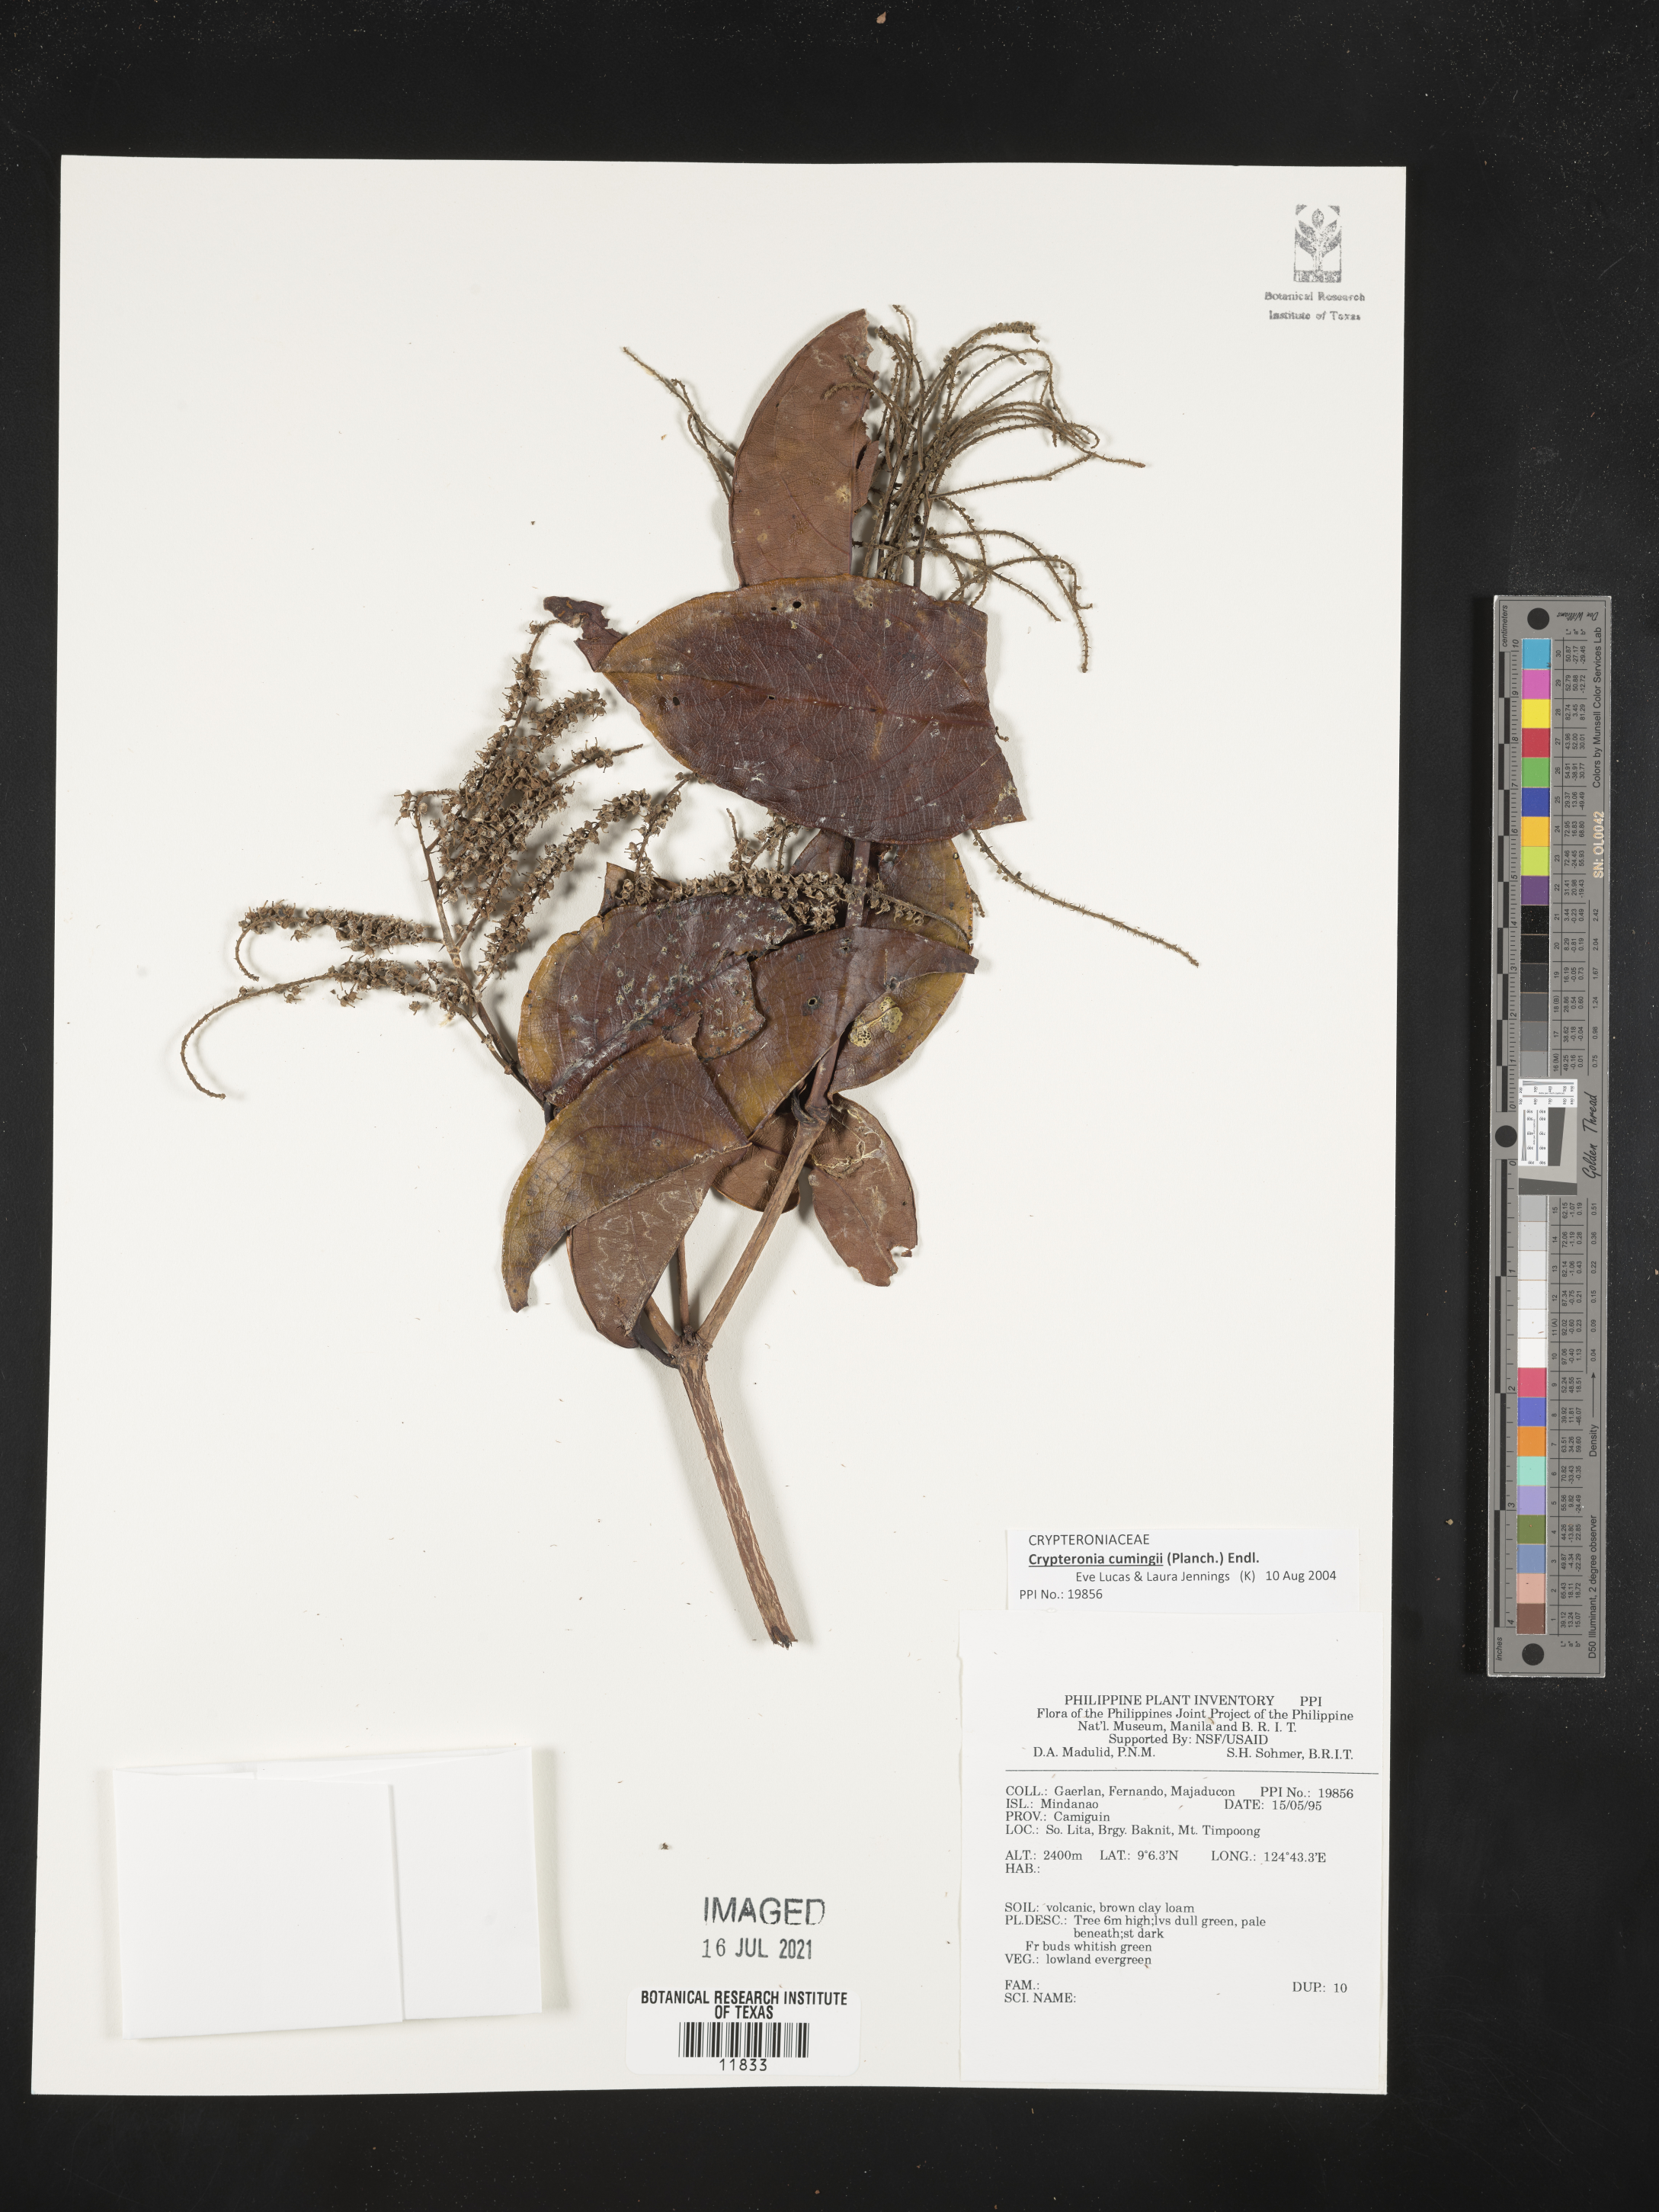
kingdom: Plantae
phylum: Tracheophyta
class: Magnoliopsida
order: Myrtales
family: Crypteroniaceae
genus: Crypteronia
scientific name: Crypteronia cumingii
